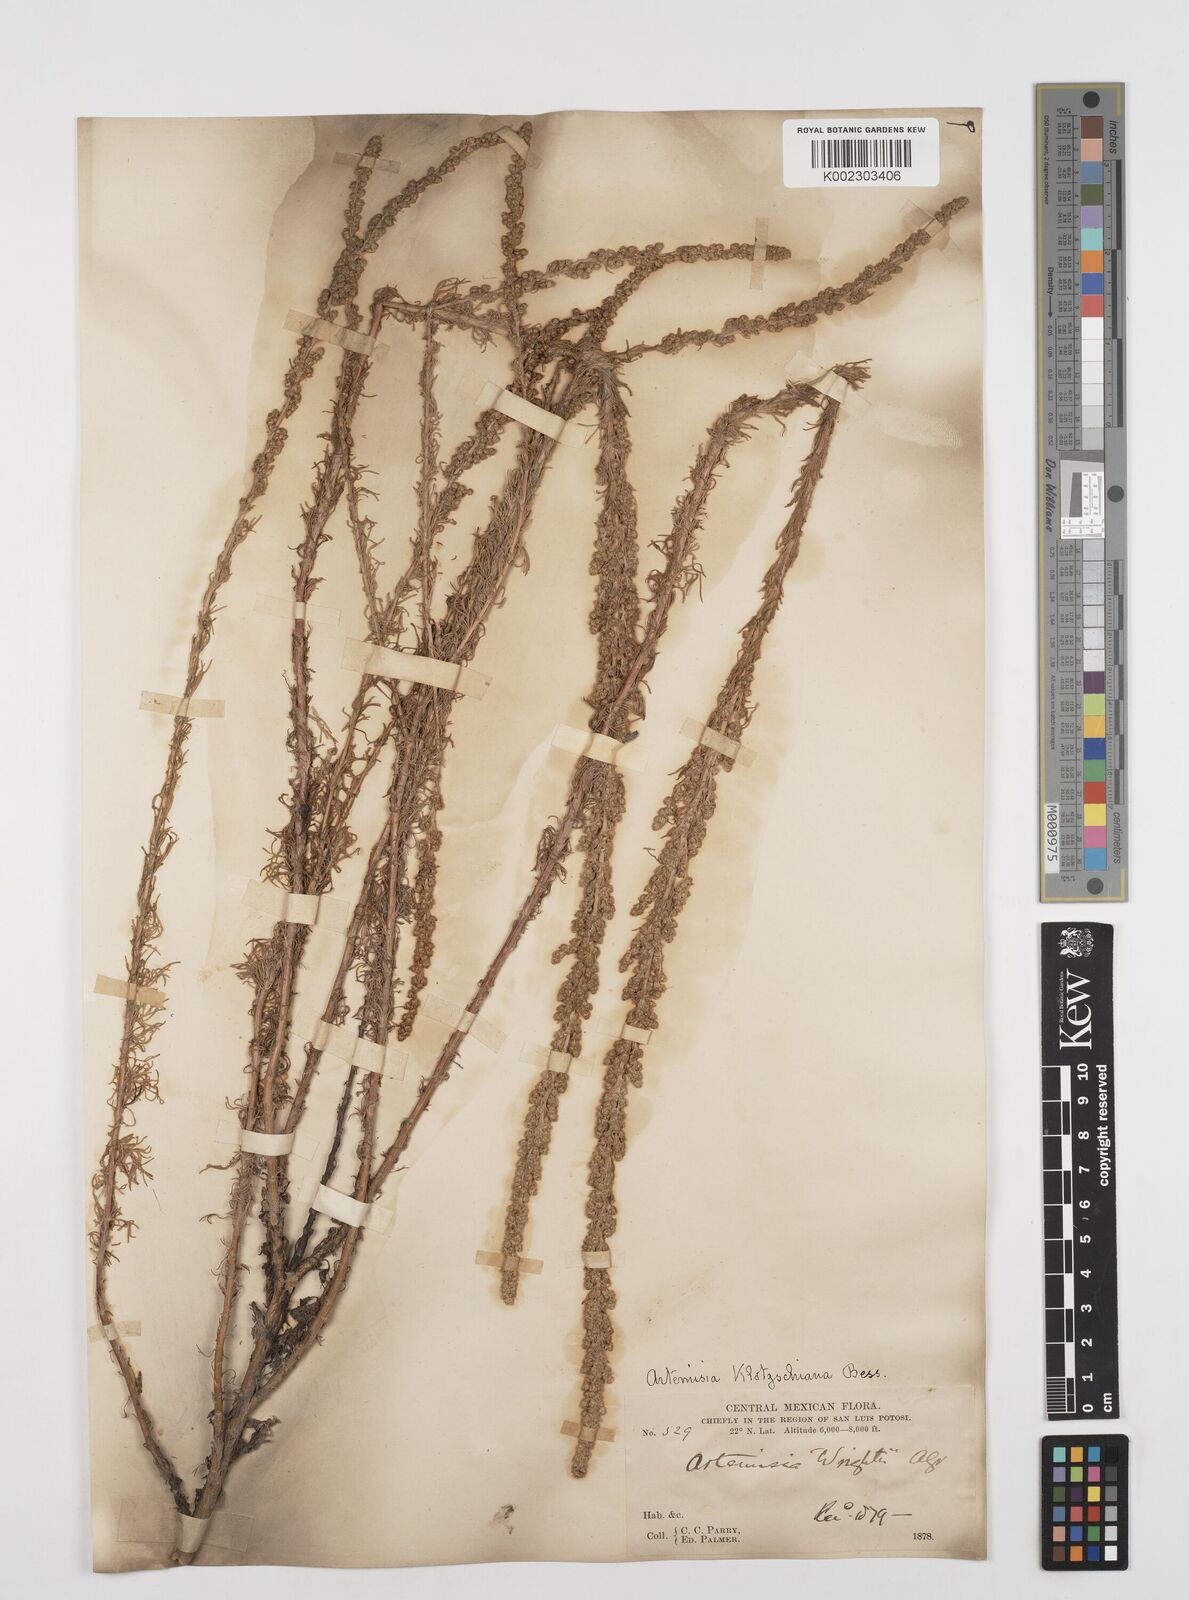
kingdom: Plantae
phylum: Tracheophyta
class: Magnoliopsida
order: Asterales
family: Asteraceae
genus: Artemisia
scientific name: Artemisia klotzschiana
